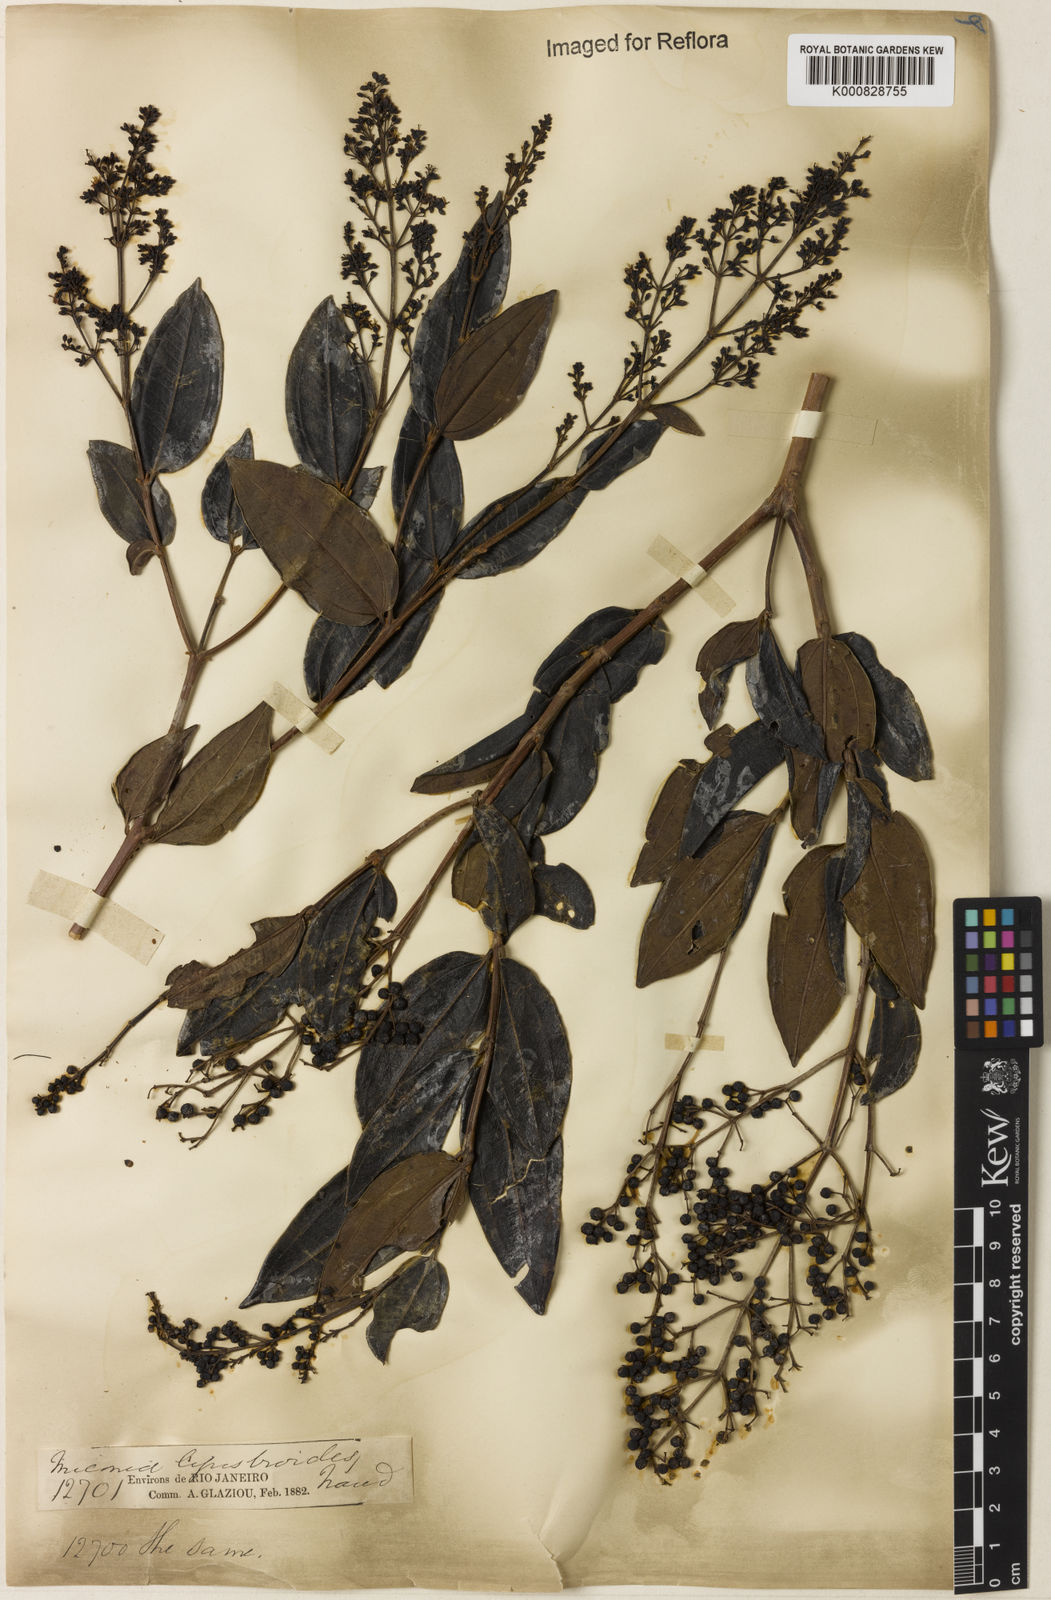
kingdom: Plantae
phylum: Tracheophyta
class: Magnoliopsida
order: Myrtales
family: Melastomataceae
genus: Miconia
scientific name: Miconia ligustroides
